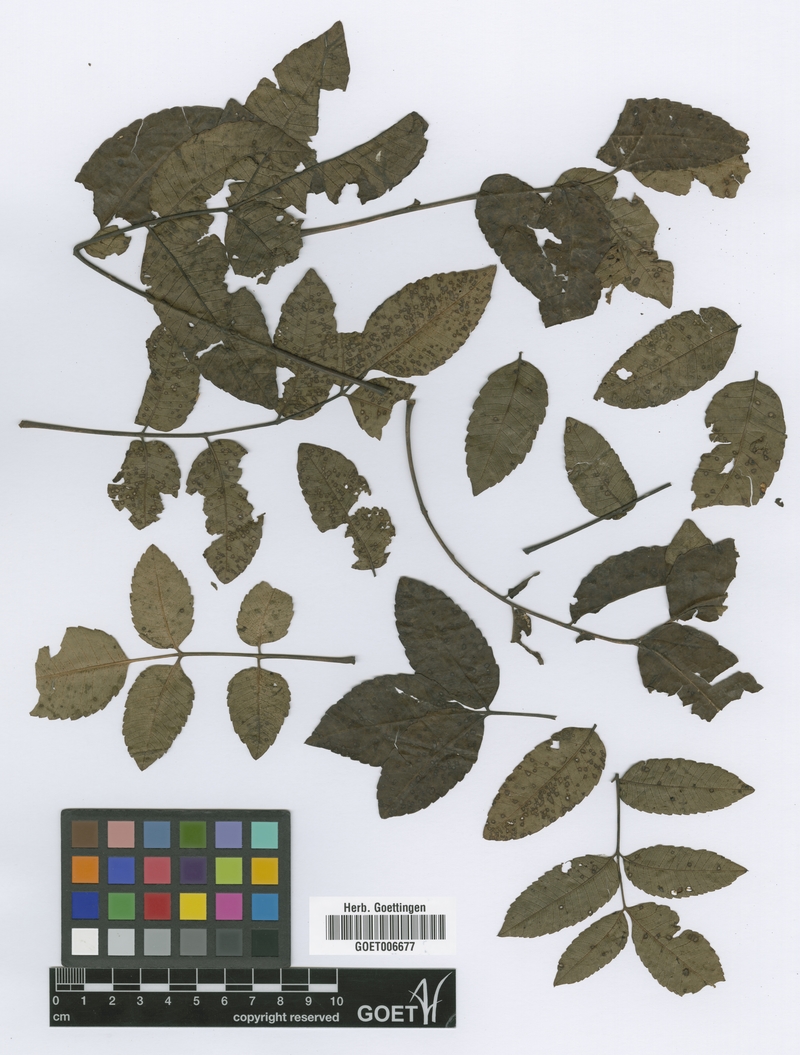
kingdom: Plantae
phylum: Tracheophyta
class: Magnoliopsida
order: Sapindales
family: Anacardiaceae
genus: Loxopterygium
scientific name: Loxopterygium
